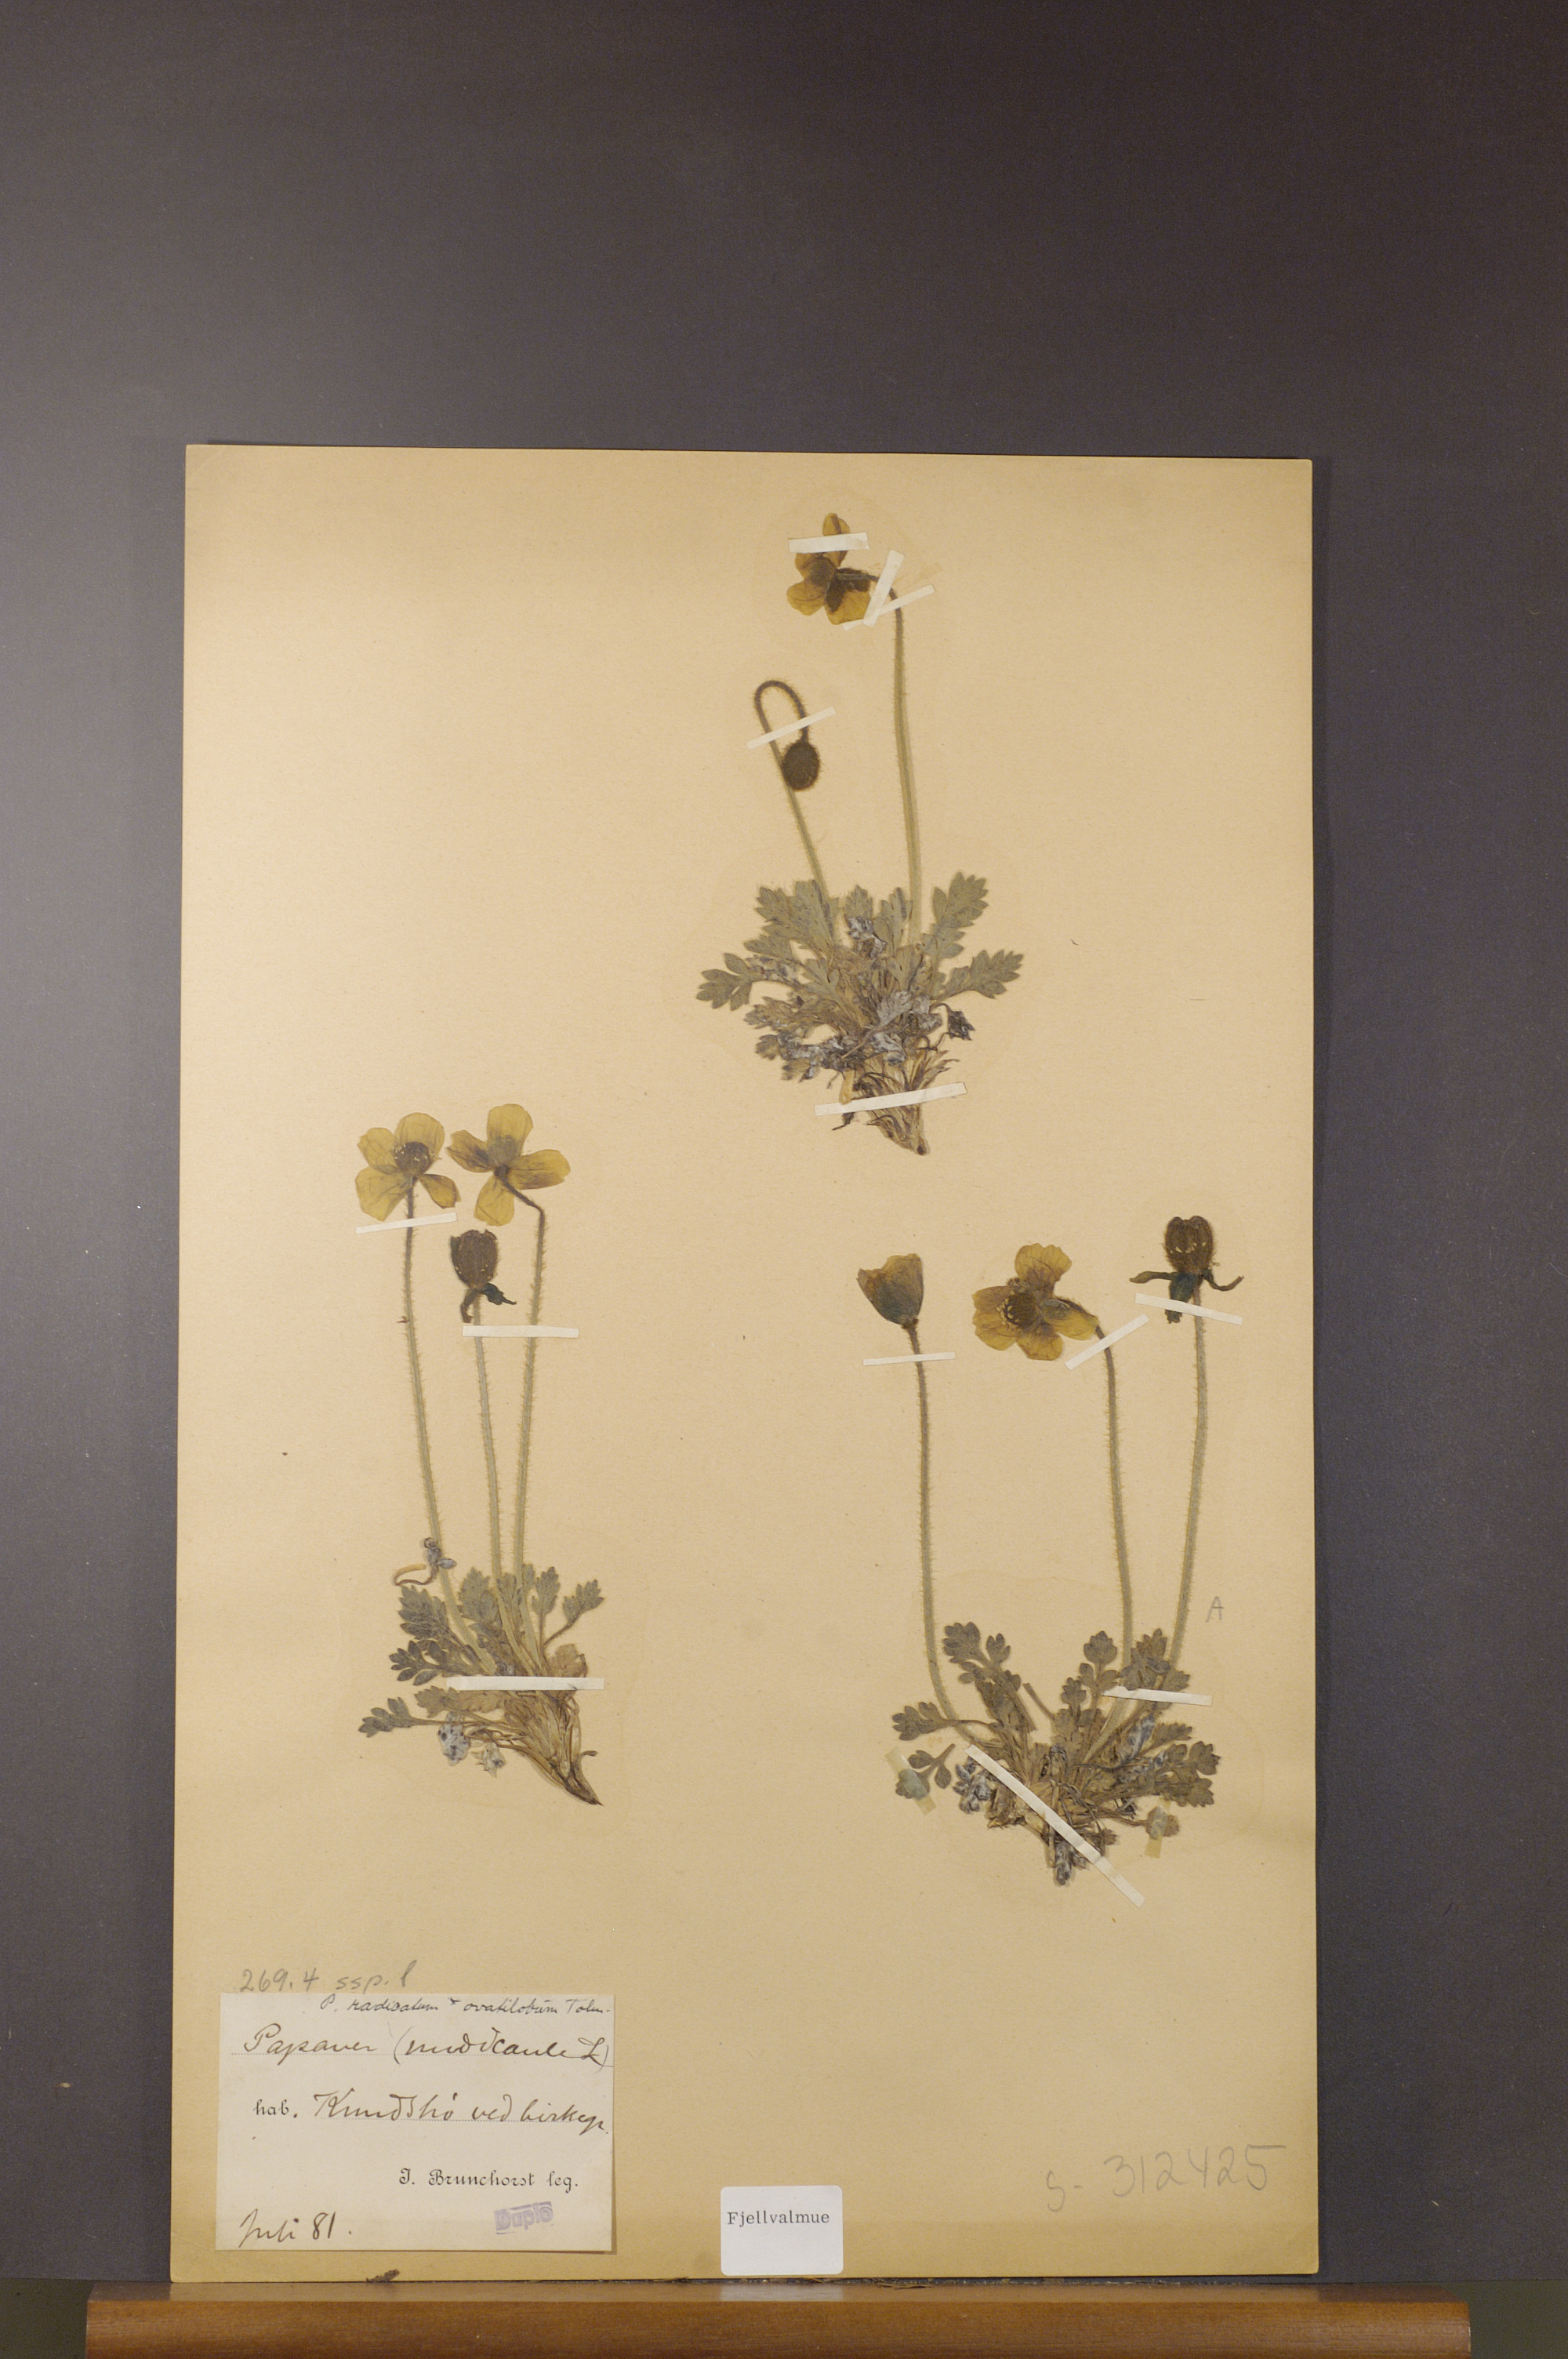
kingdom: Plantae
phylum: Tracheophyta
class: Magnoliopsida
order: Ranunculales
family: Papaveraceae
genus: Papaver
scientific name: Papaver radicatum
